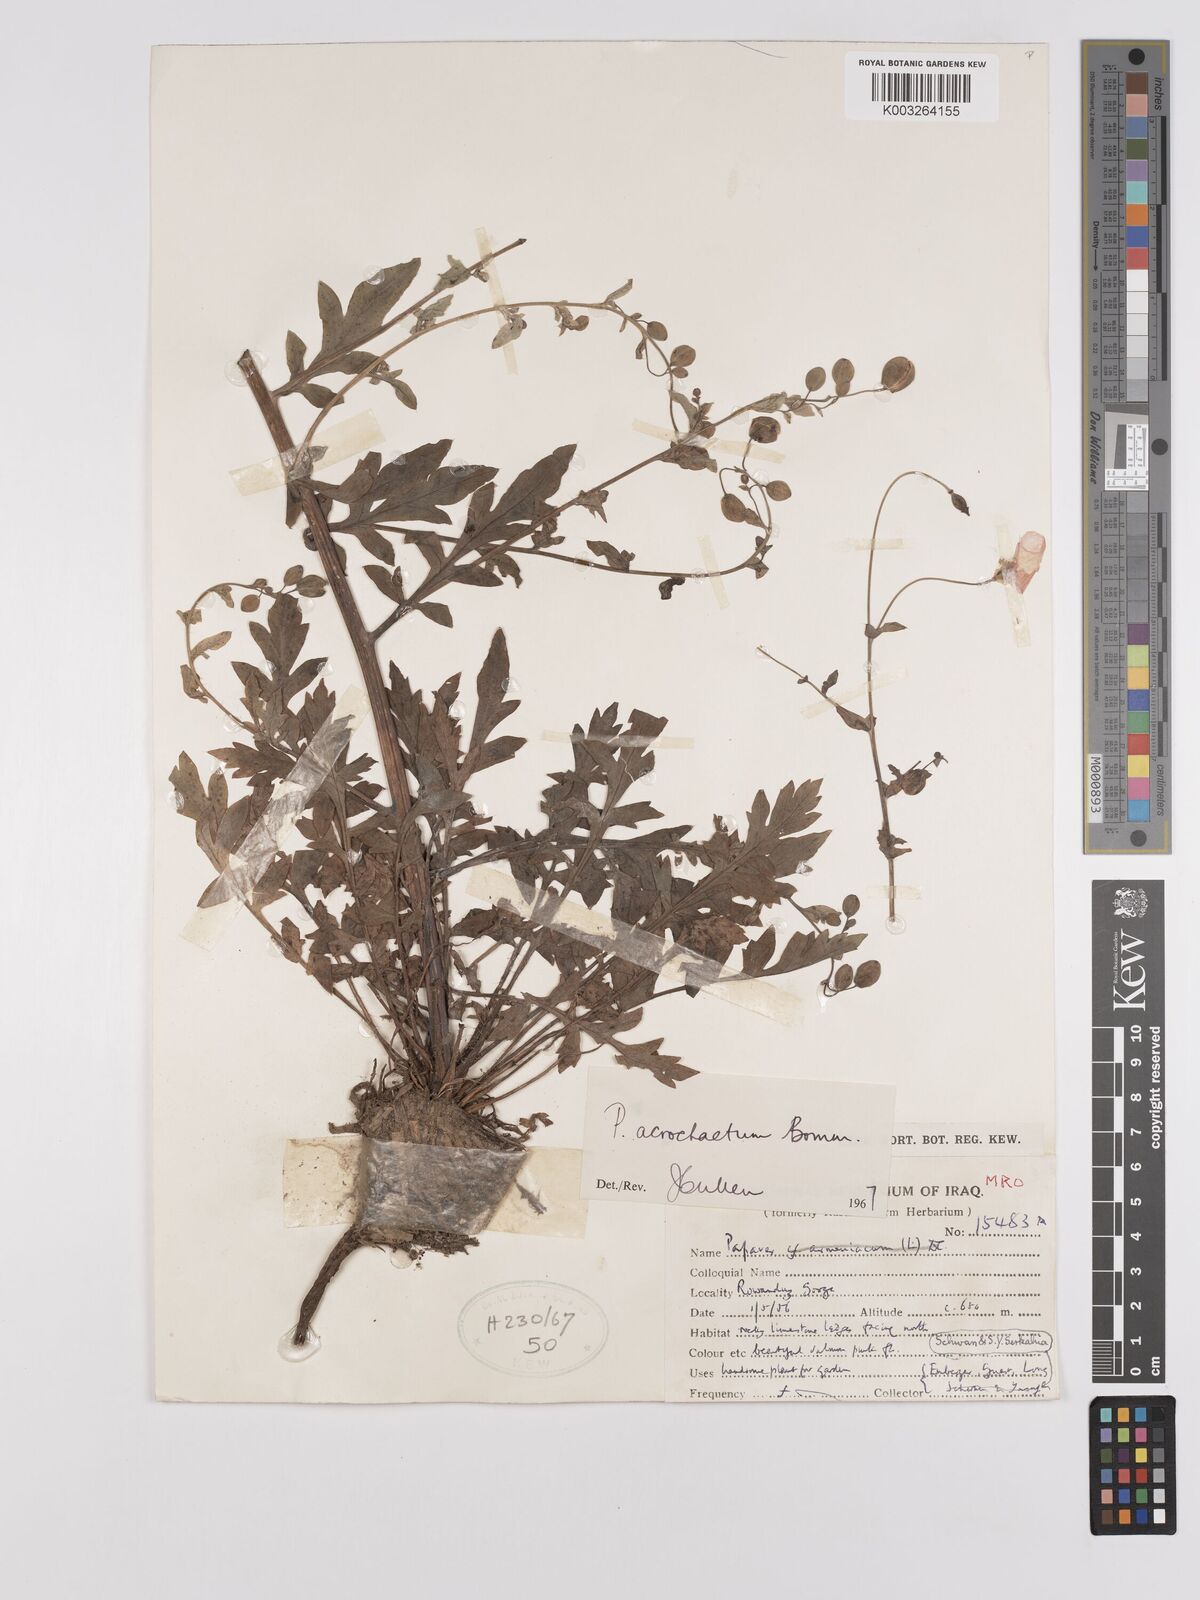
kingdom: Plantae
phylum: Tracheophyta
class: Magnoliopsida
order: Ranunculales
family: Papaveraceae
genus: Papaver
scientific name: Papaver acrochaetum
